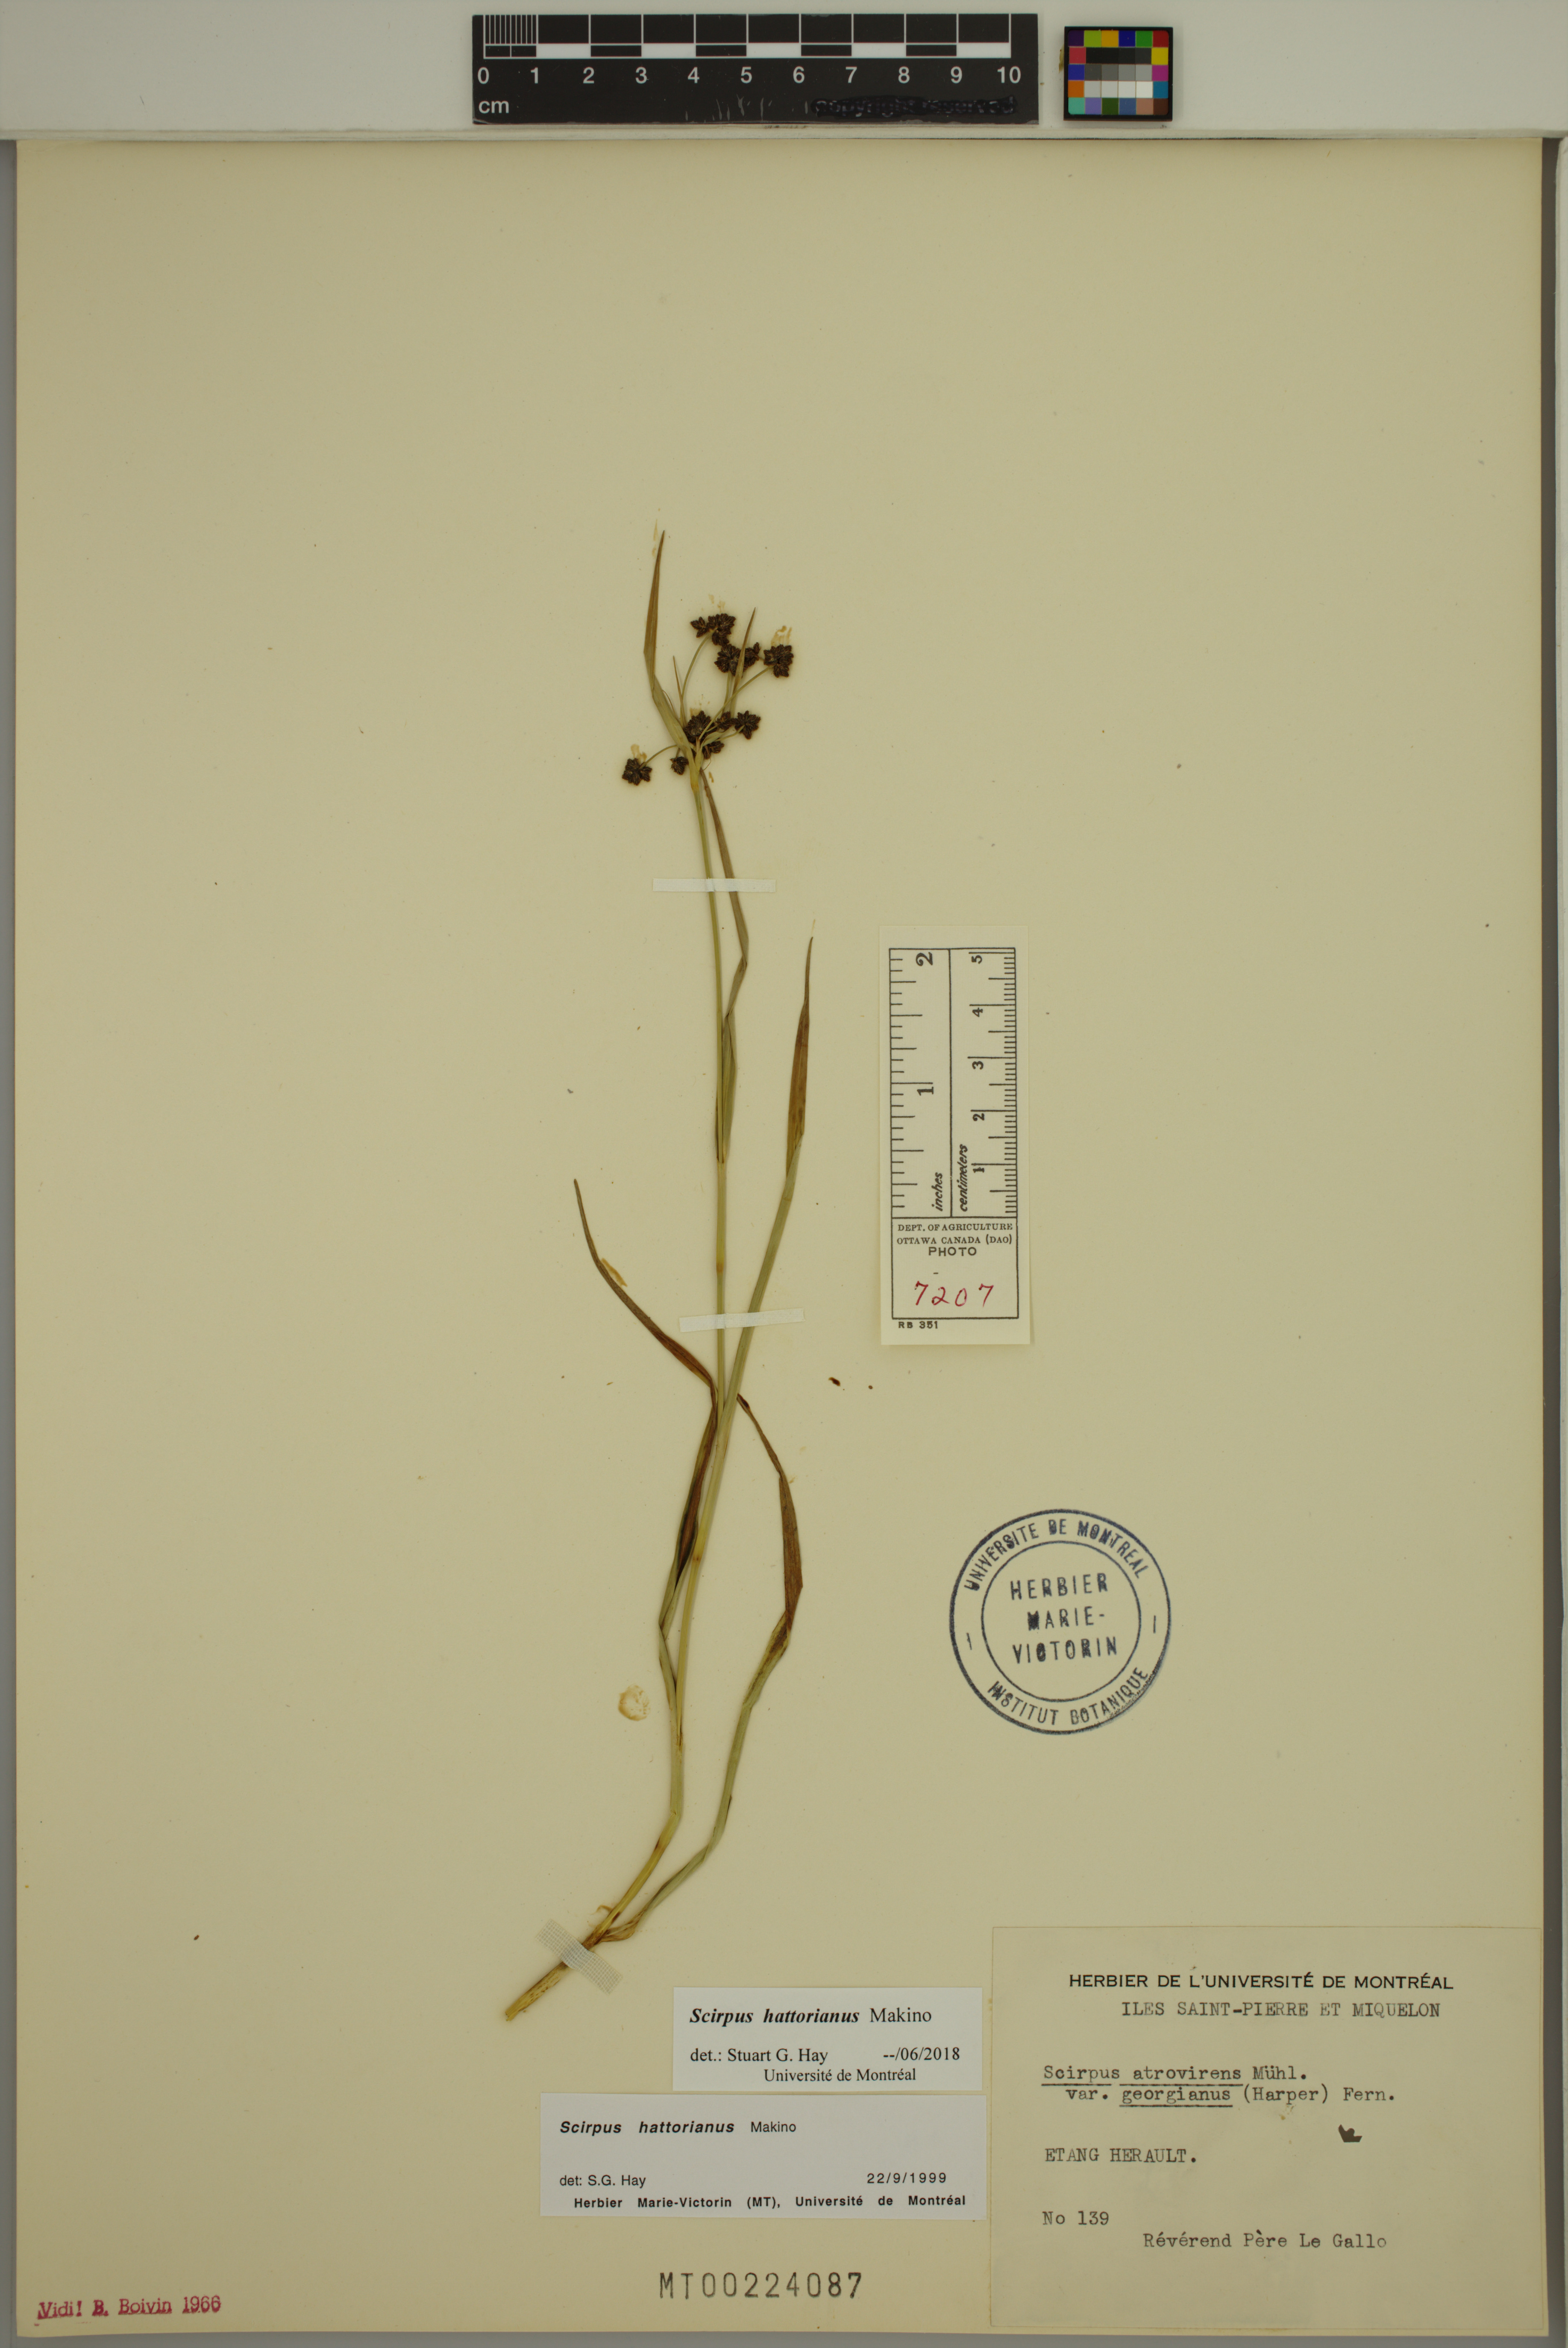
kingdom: Plantae
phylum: Tracheophyta
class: Liliopsida
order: Poales
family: Cyperaceae
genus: Scirpus
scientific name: Scirpus hattorianus
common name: Early dark-green bulrush
